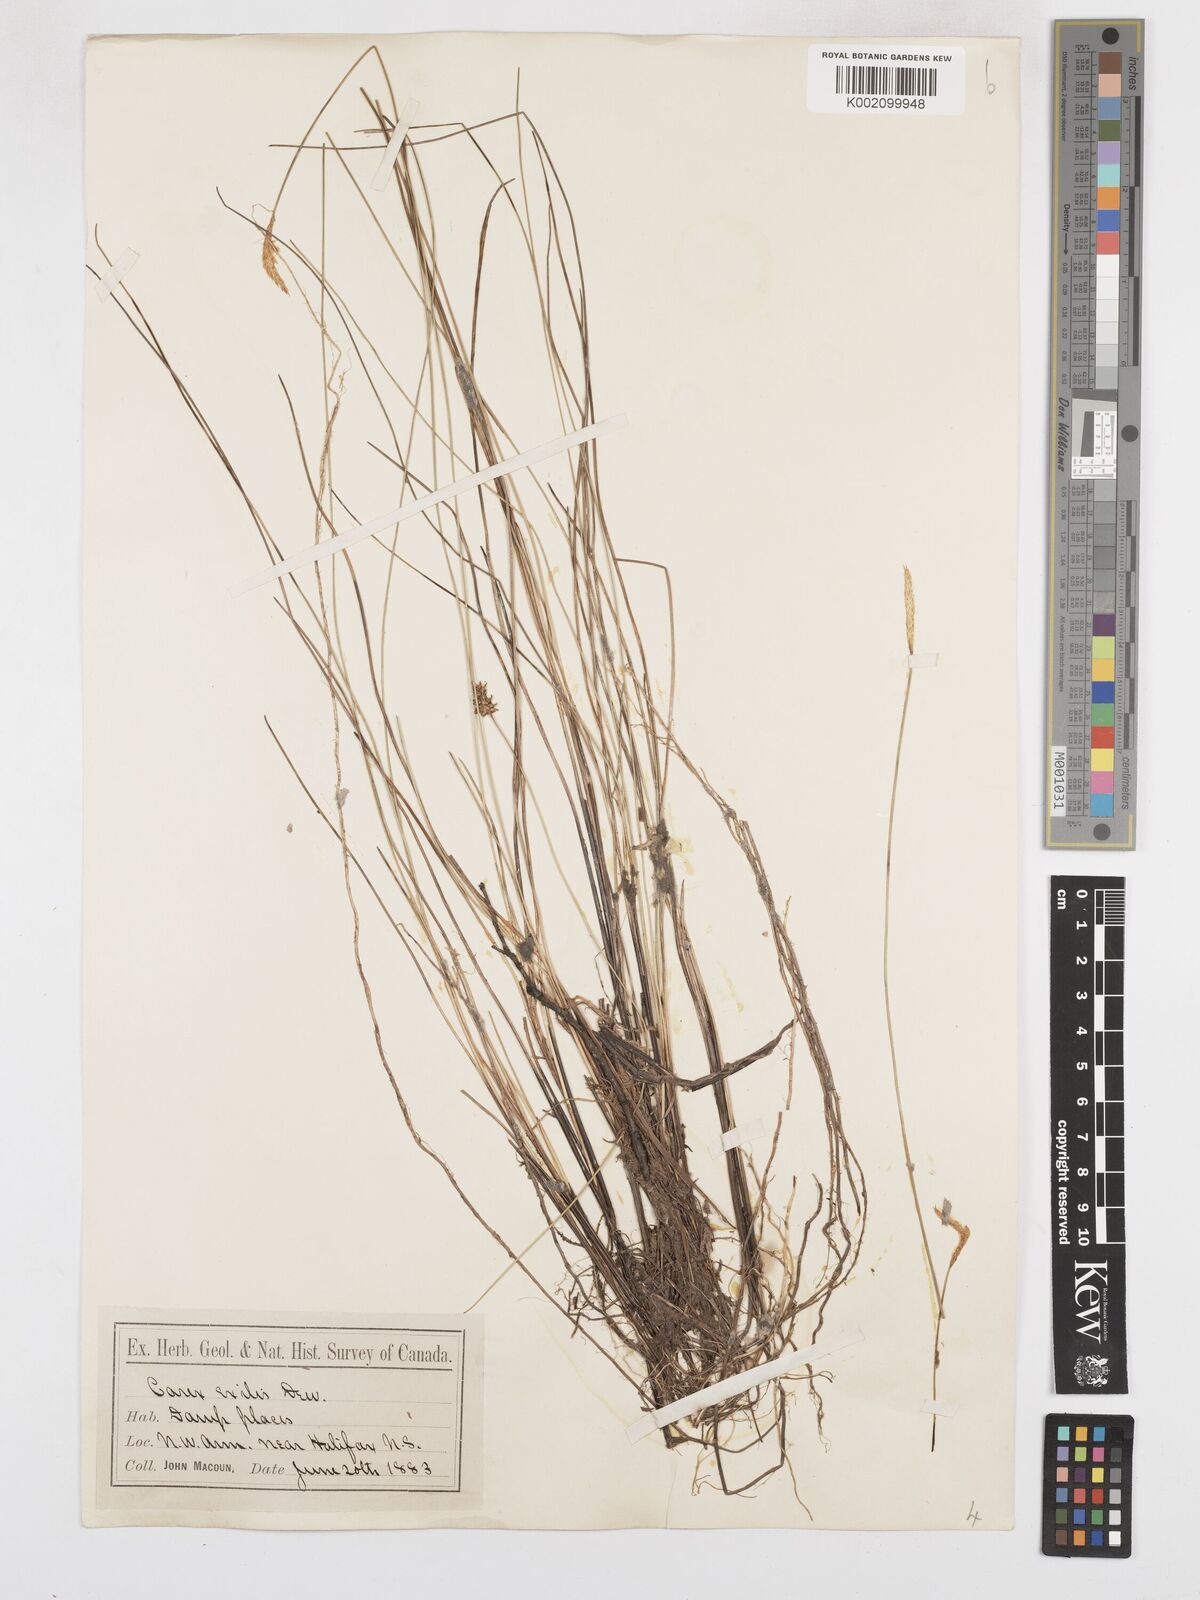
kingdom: Plantae
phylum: Tracheophyta
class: Liliopsida
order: Poales
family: Cyperaceae
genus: Carex
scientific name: Carex exilis
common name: Coastal sedge
